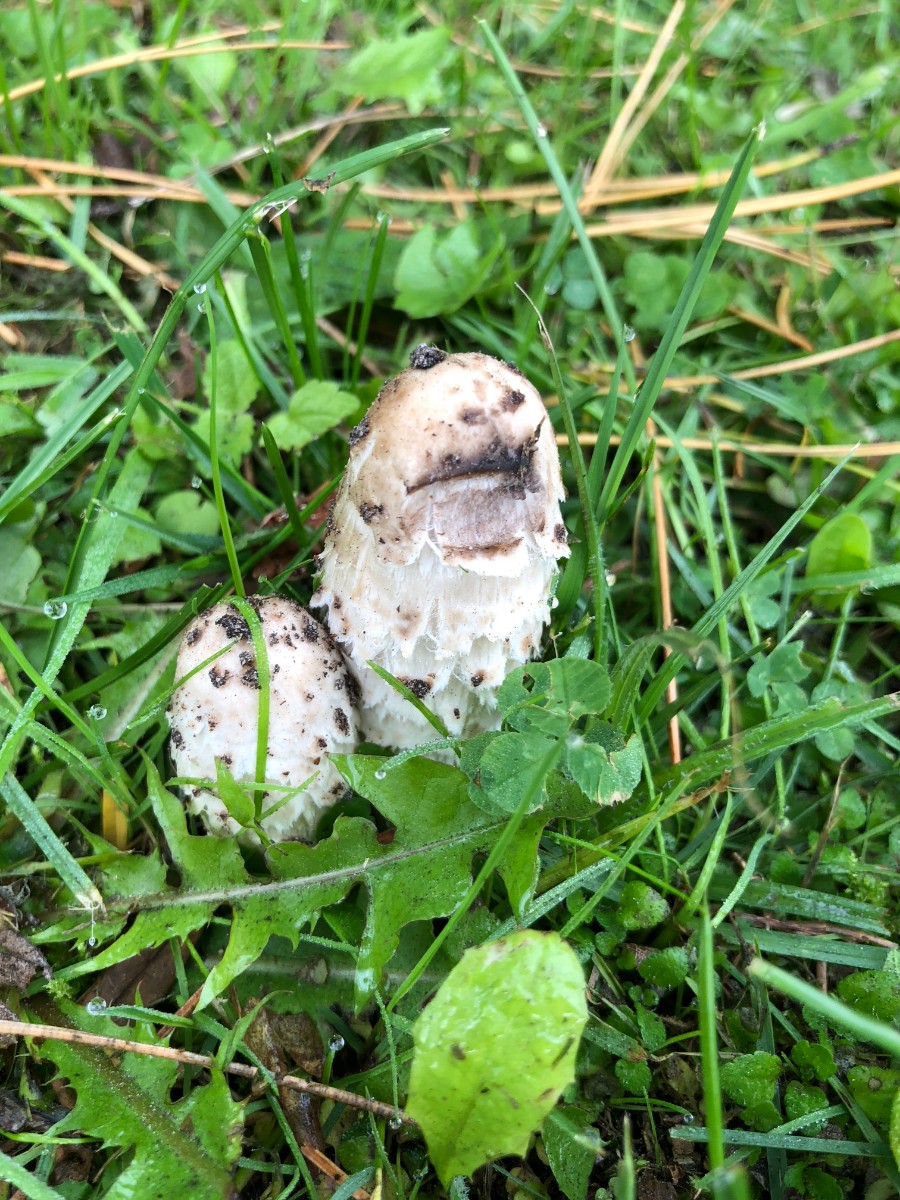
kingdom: Fungi
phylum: Basidiomycota
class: Agaricomycetes
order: Agaricales
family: Agaricaceae
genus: Coprinus
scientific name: Coprinus comatus
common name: stor parykhat
